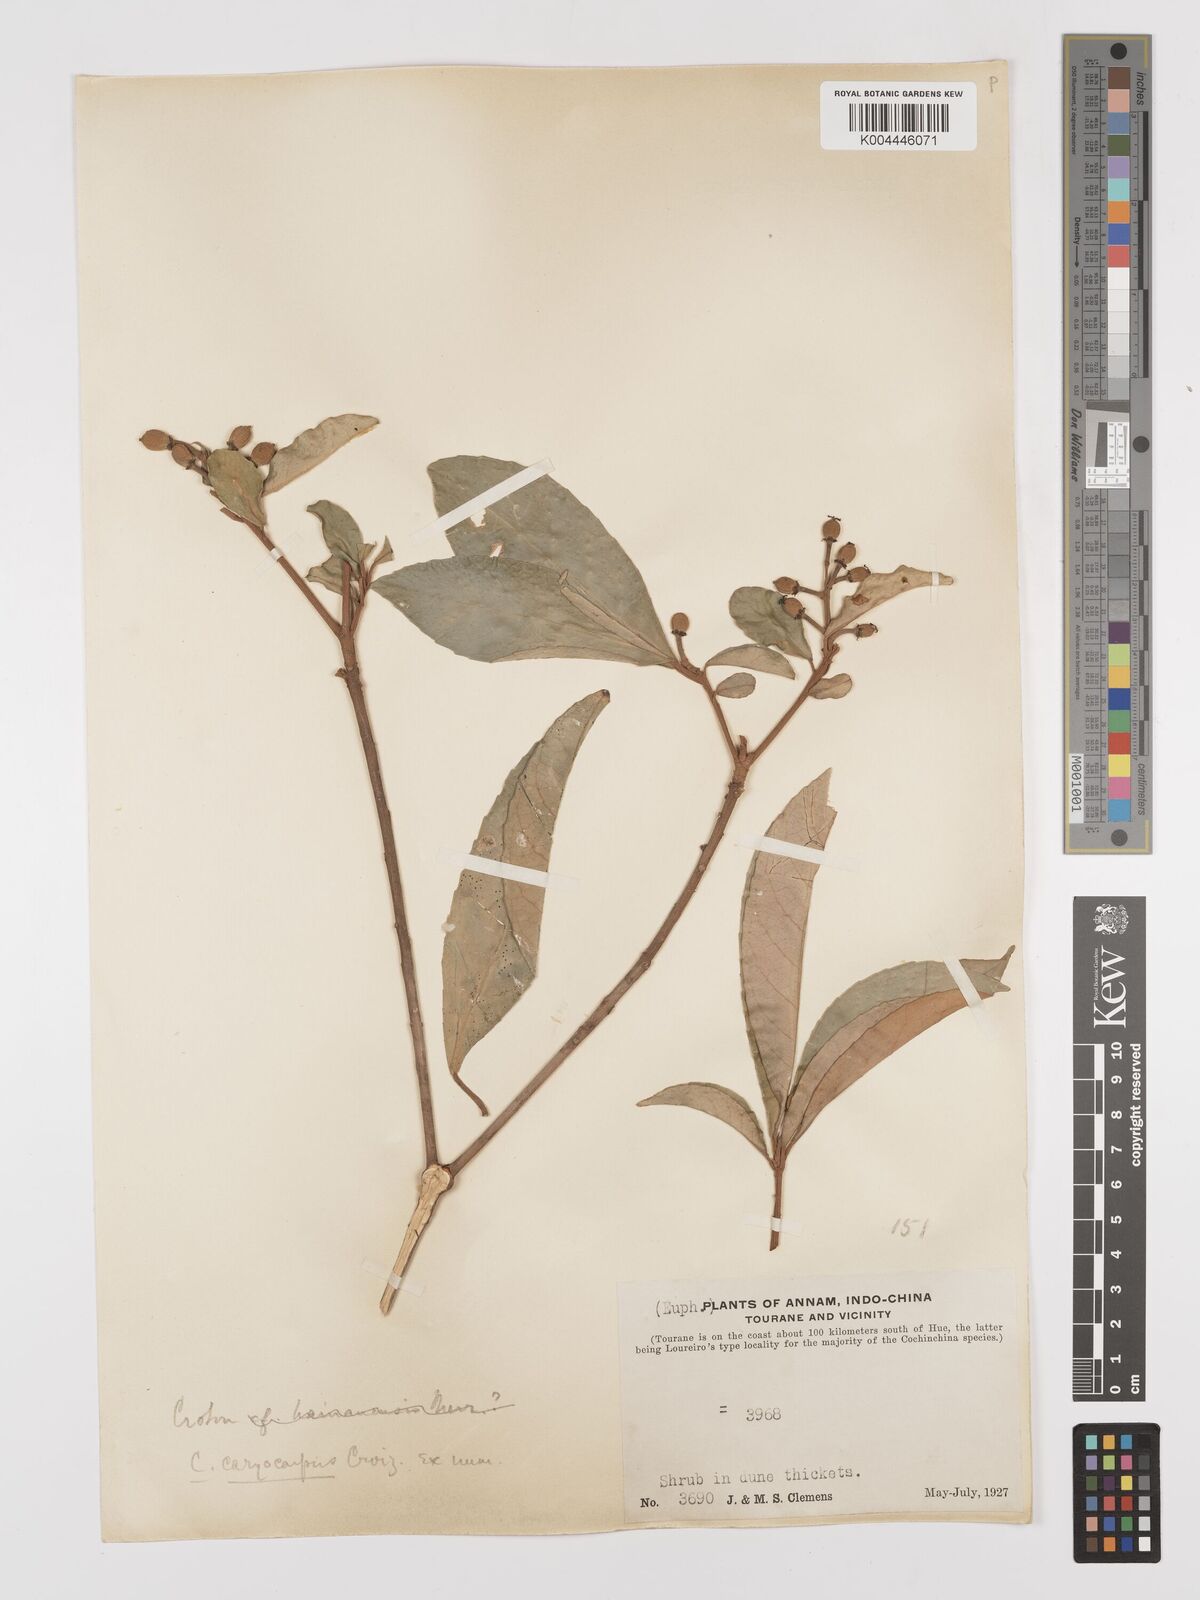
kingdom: Plantae
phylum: Tracheophyta
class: Magnoliopsida
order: Malpighiales
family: Euphorbiaceae
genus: Croton
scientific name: Croton joufra
